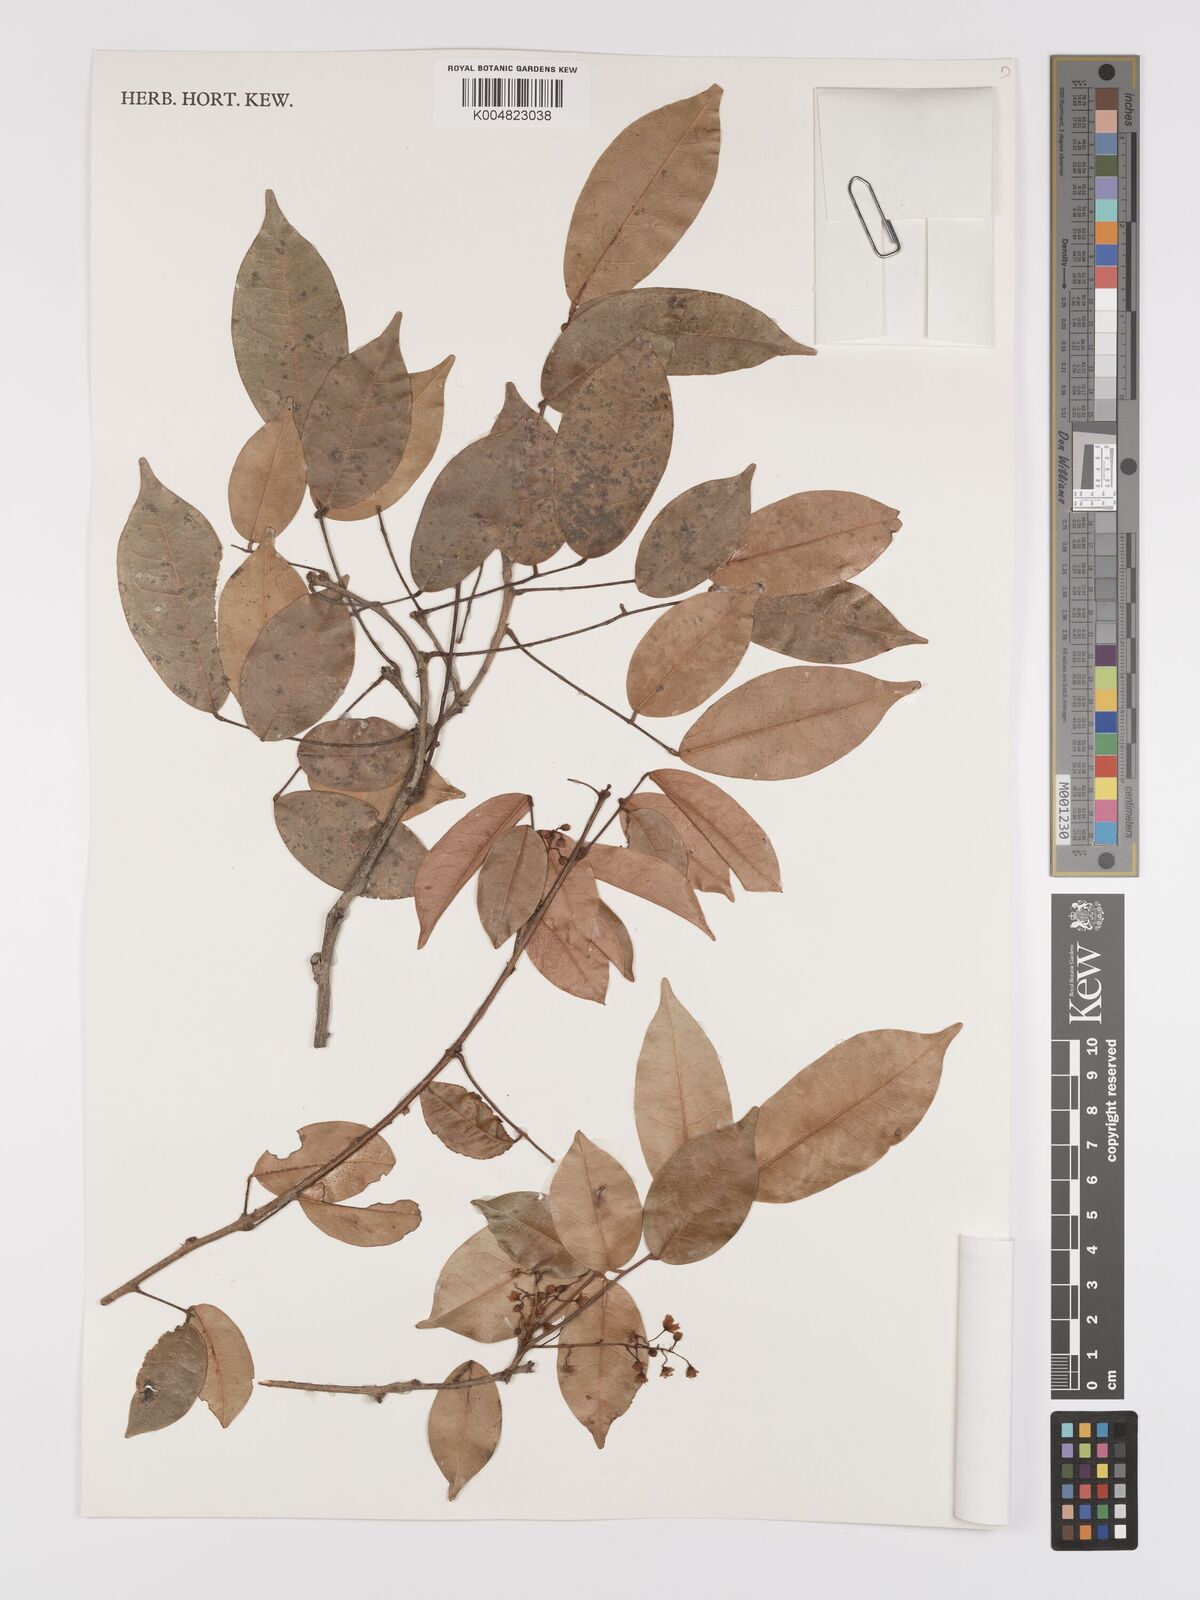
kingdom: Plantae
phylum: Tracheophyta
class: Magnoliopsida
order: Oxalidales
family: Connaraceae
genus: Rourea
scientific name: Rourea glabra
